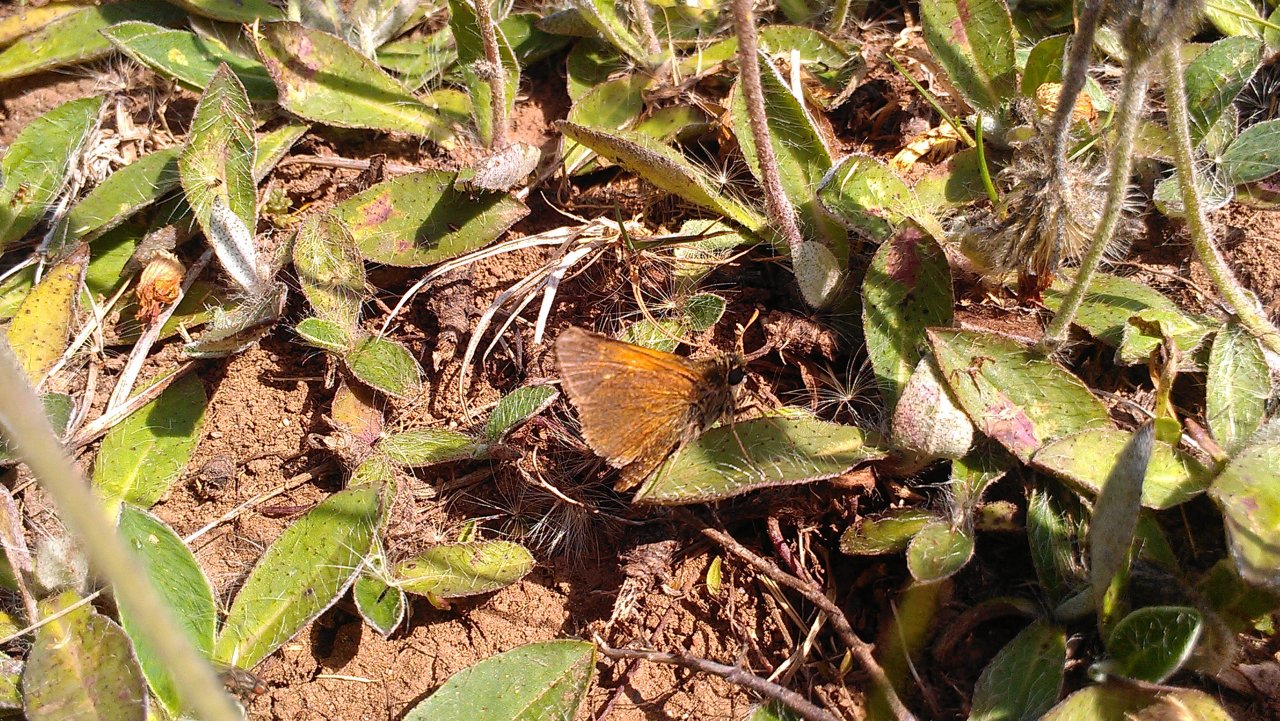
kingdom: Animalia
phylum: Arthropoda
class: Insecta
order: Lepidoptera
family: Hesperiidae
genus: Polites
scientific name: Polites themistocles
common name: Tawny-edged Skipper
